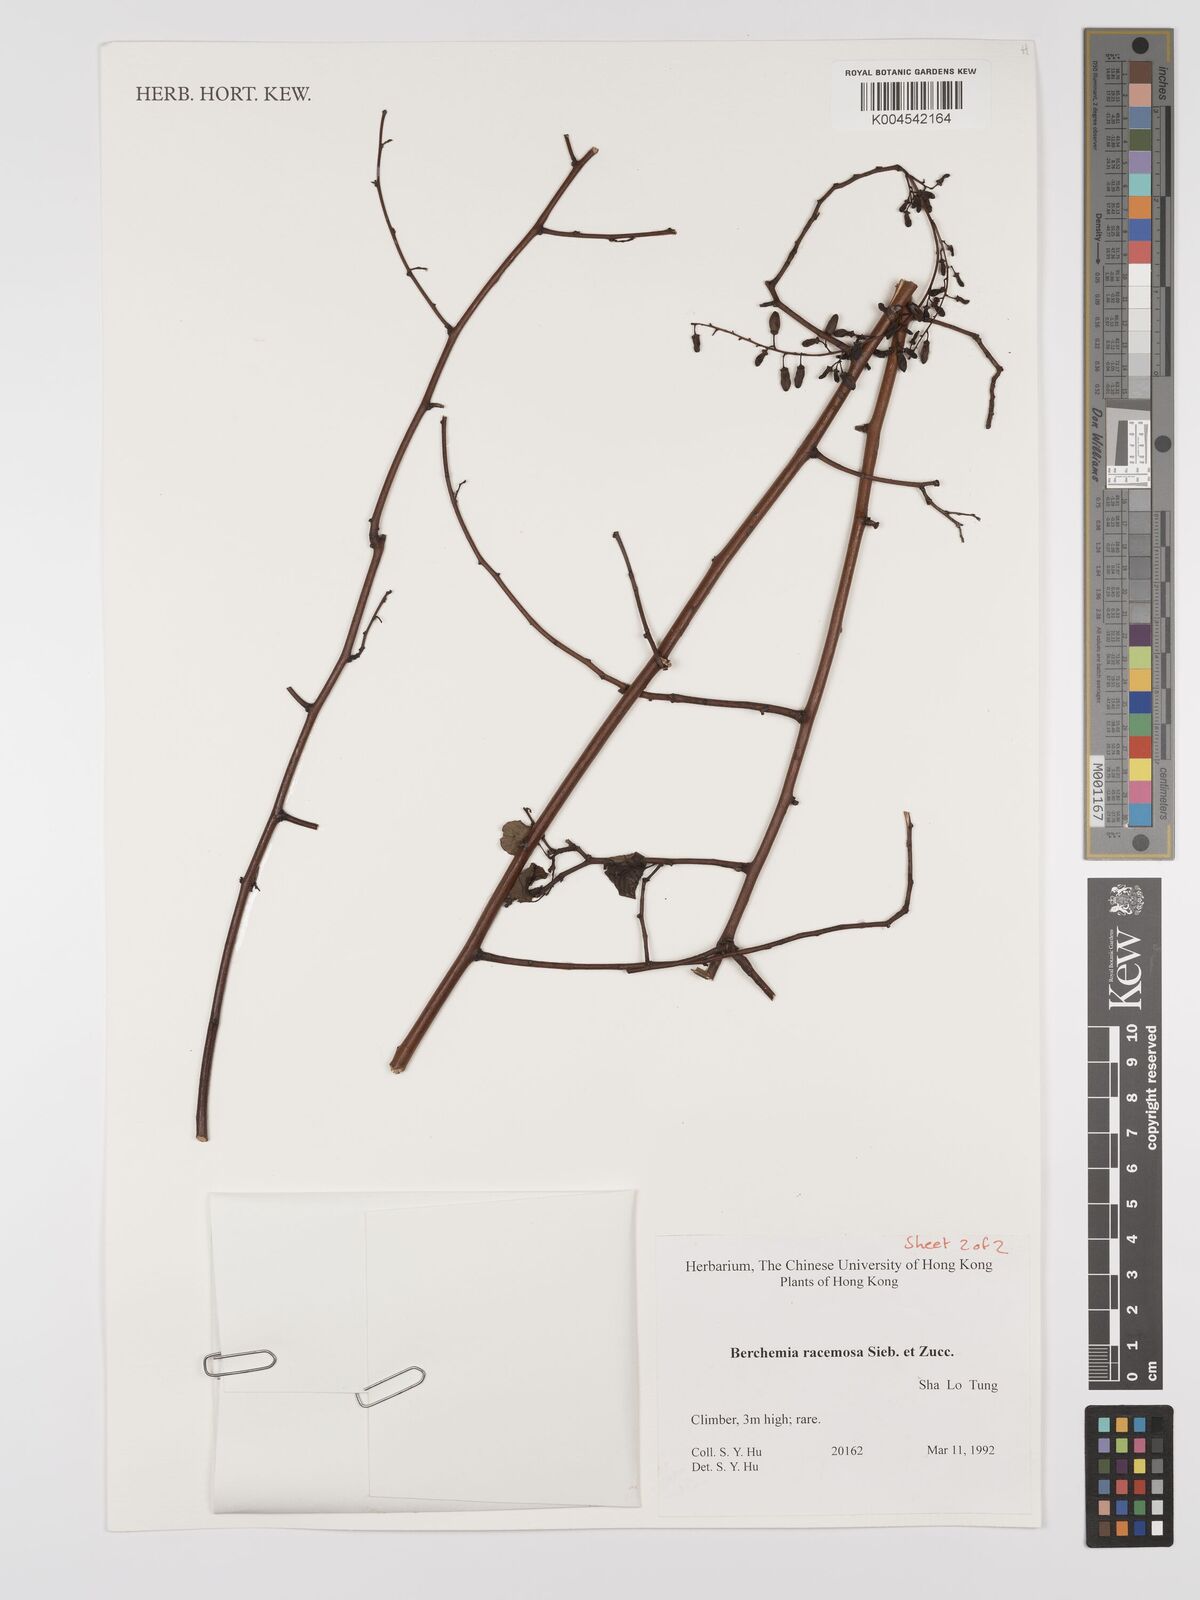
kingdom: Plantae
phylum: Tracheophyta
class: Magnoliopsida
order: Rosales
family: Rhamnaceae
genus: Berchemia
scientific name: Berchemia floribunda
